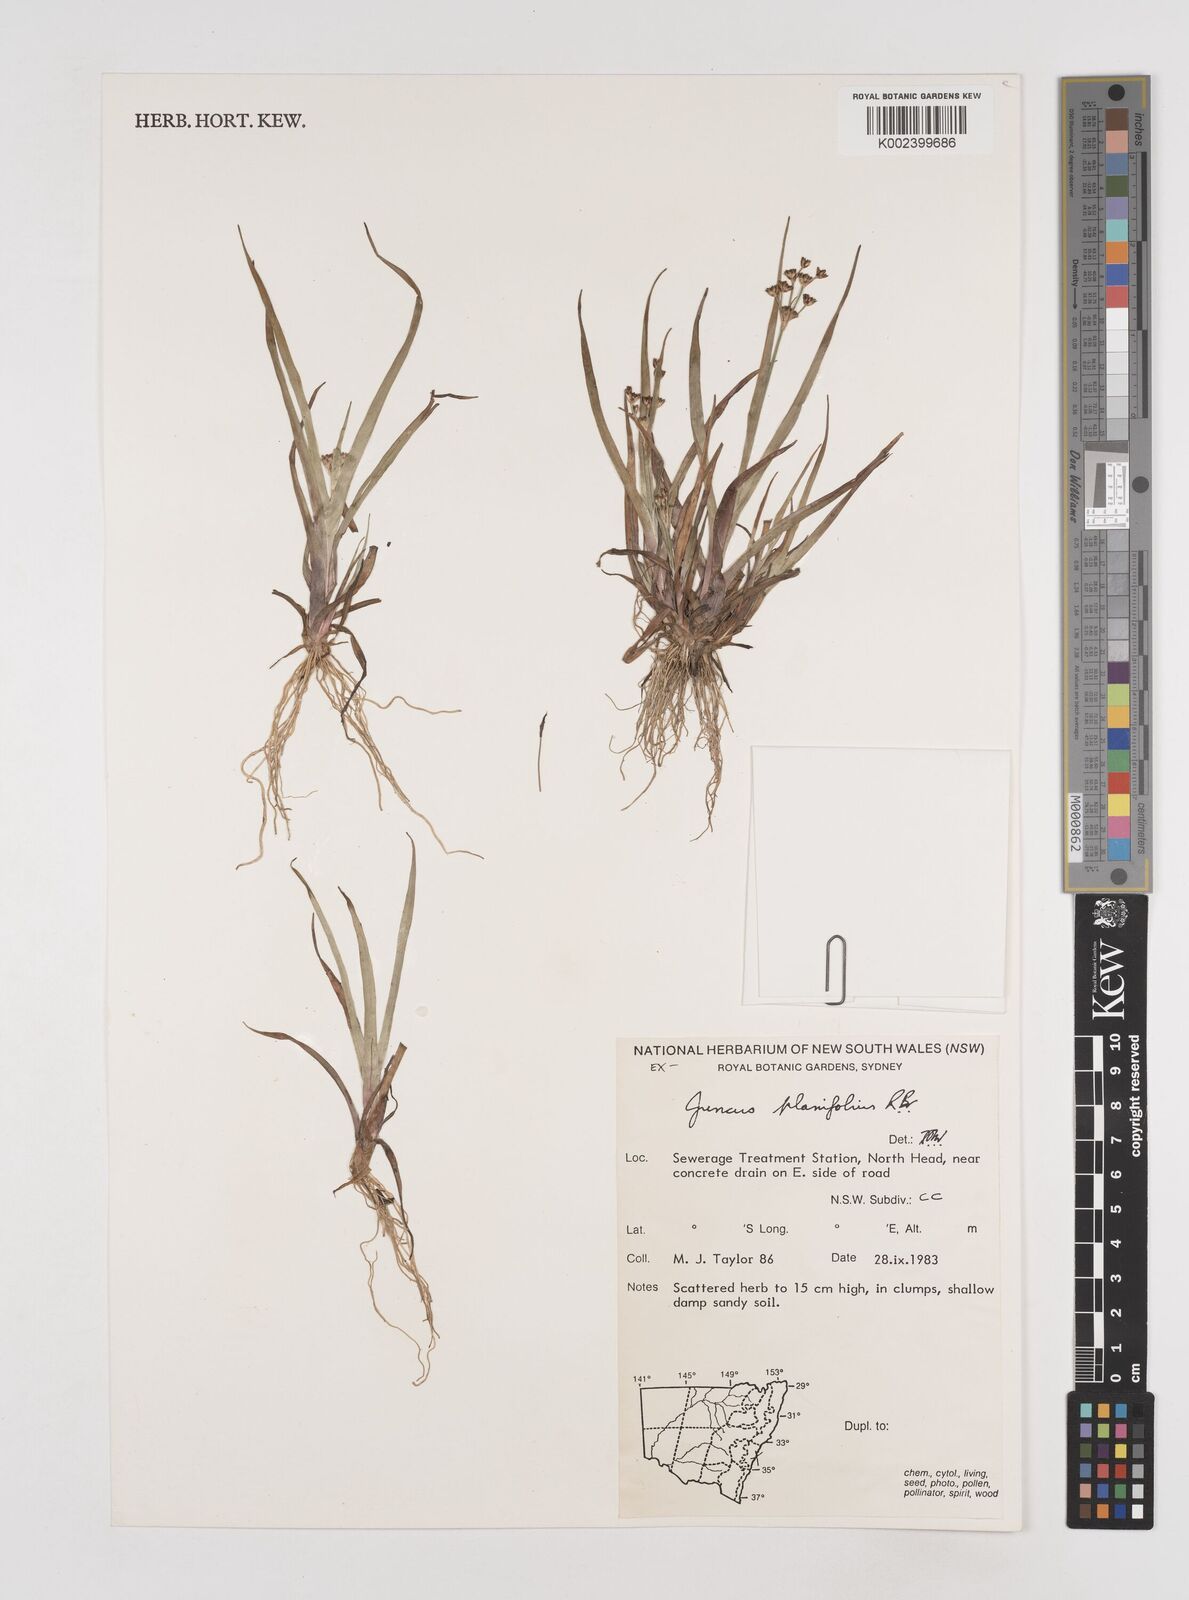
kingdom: Plantae
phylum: Tracheophyta
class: Liliopsida
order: Poales
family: Juncaceae
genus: Juncus
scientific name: Juncus planifolius
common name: Broadleaf rush
